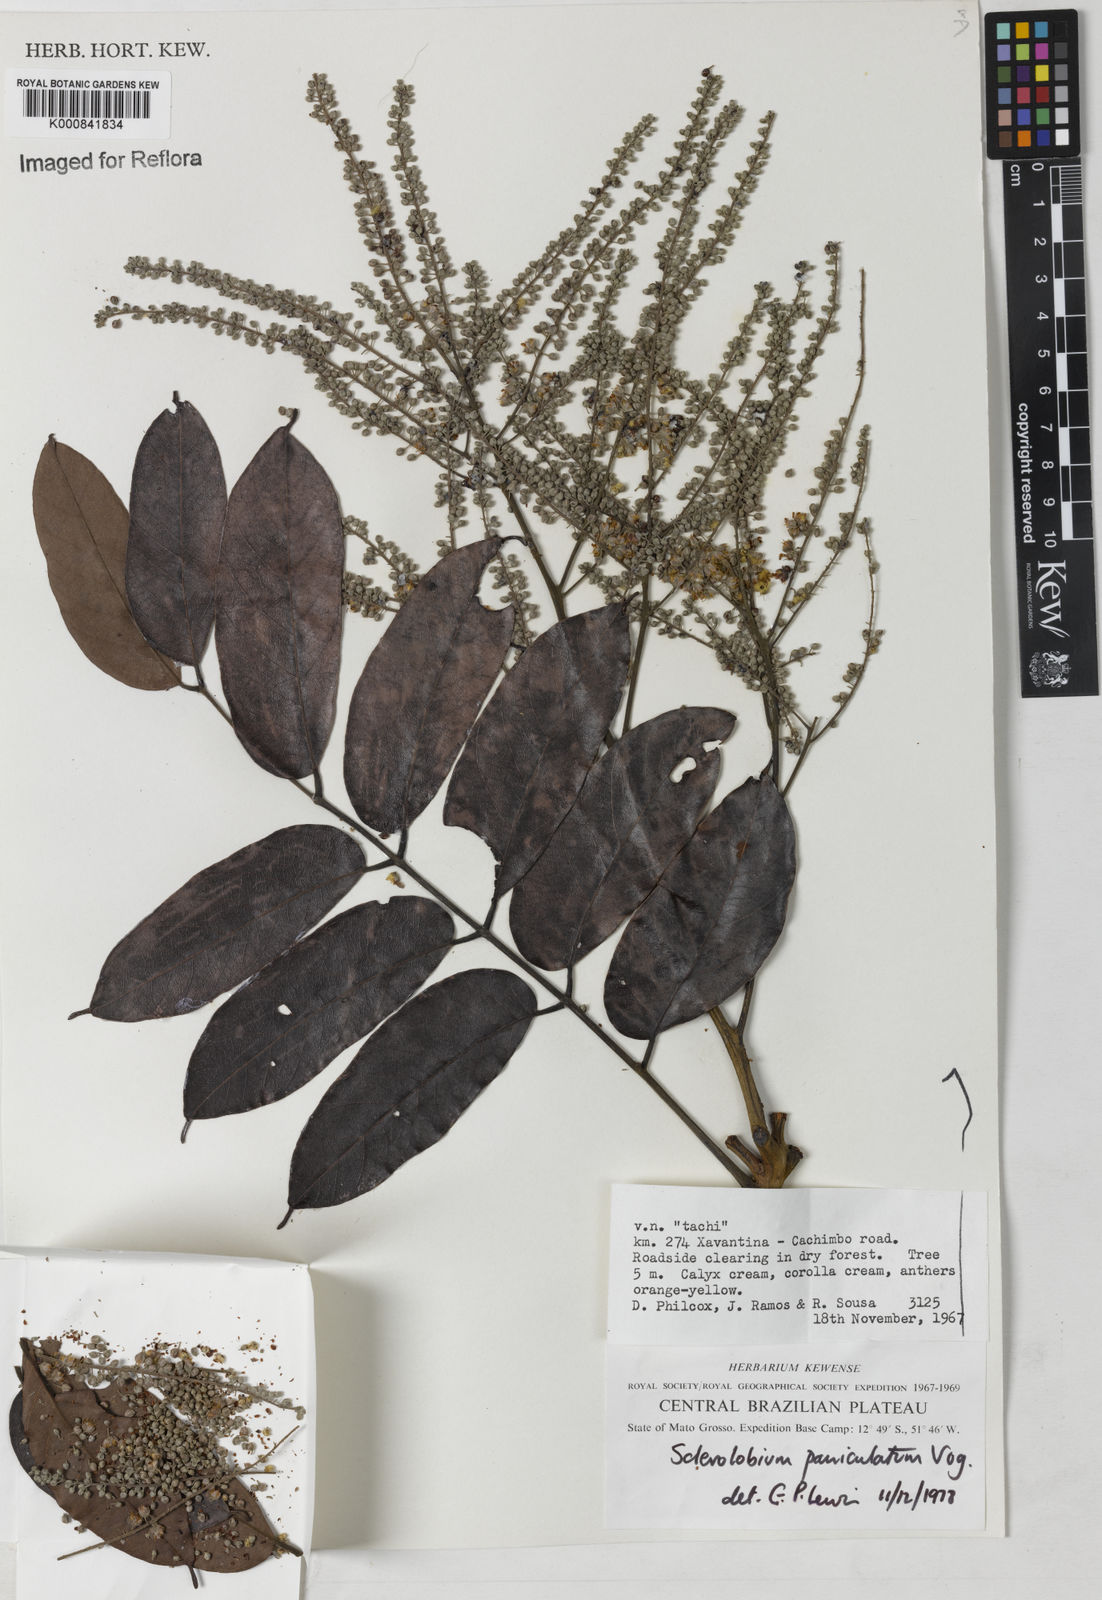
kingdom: Plantae
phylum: Tracheophyta
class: Magnoliopsida
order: Fabales
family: Fabaceae
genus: Tachigali
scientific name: Tachigali vulgaris
